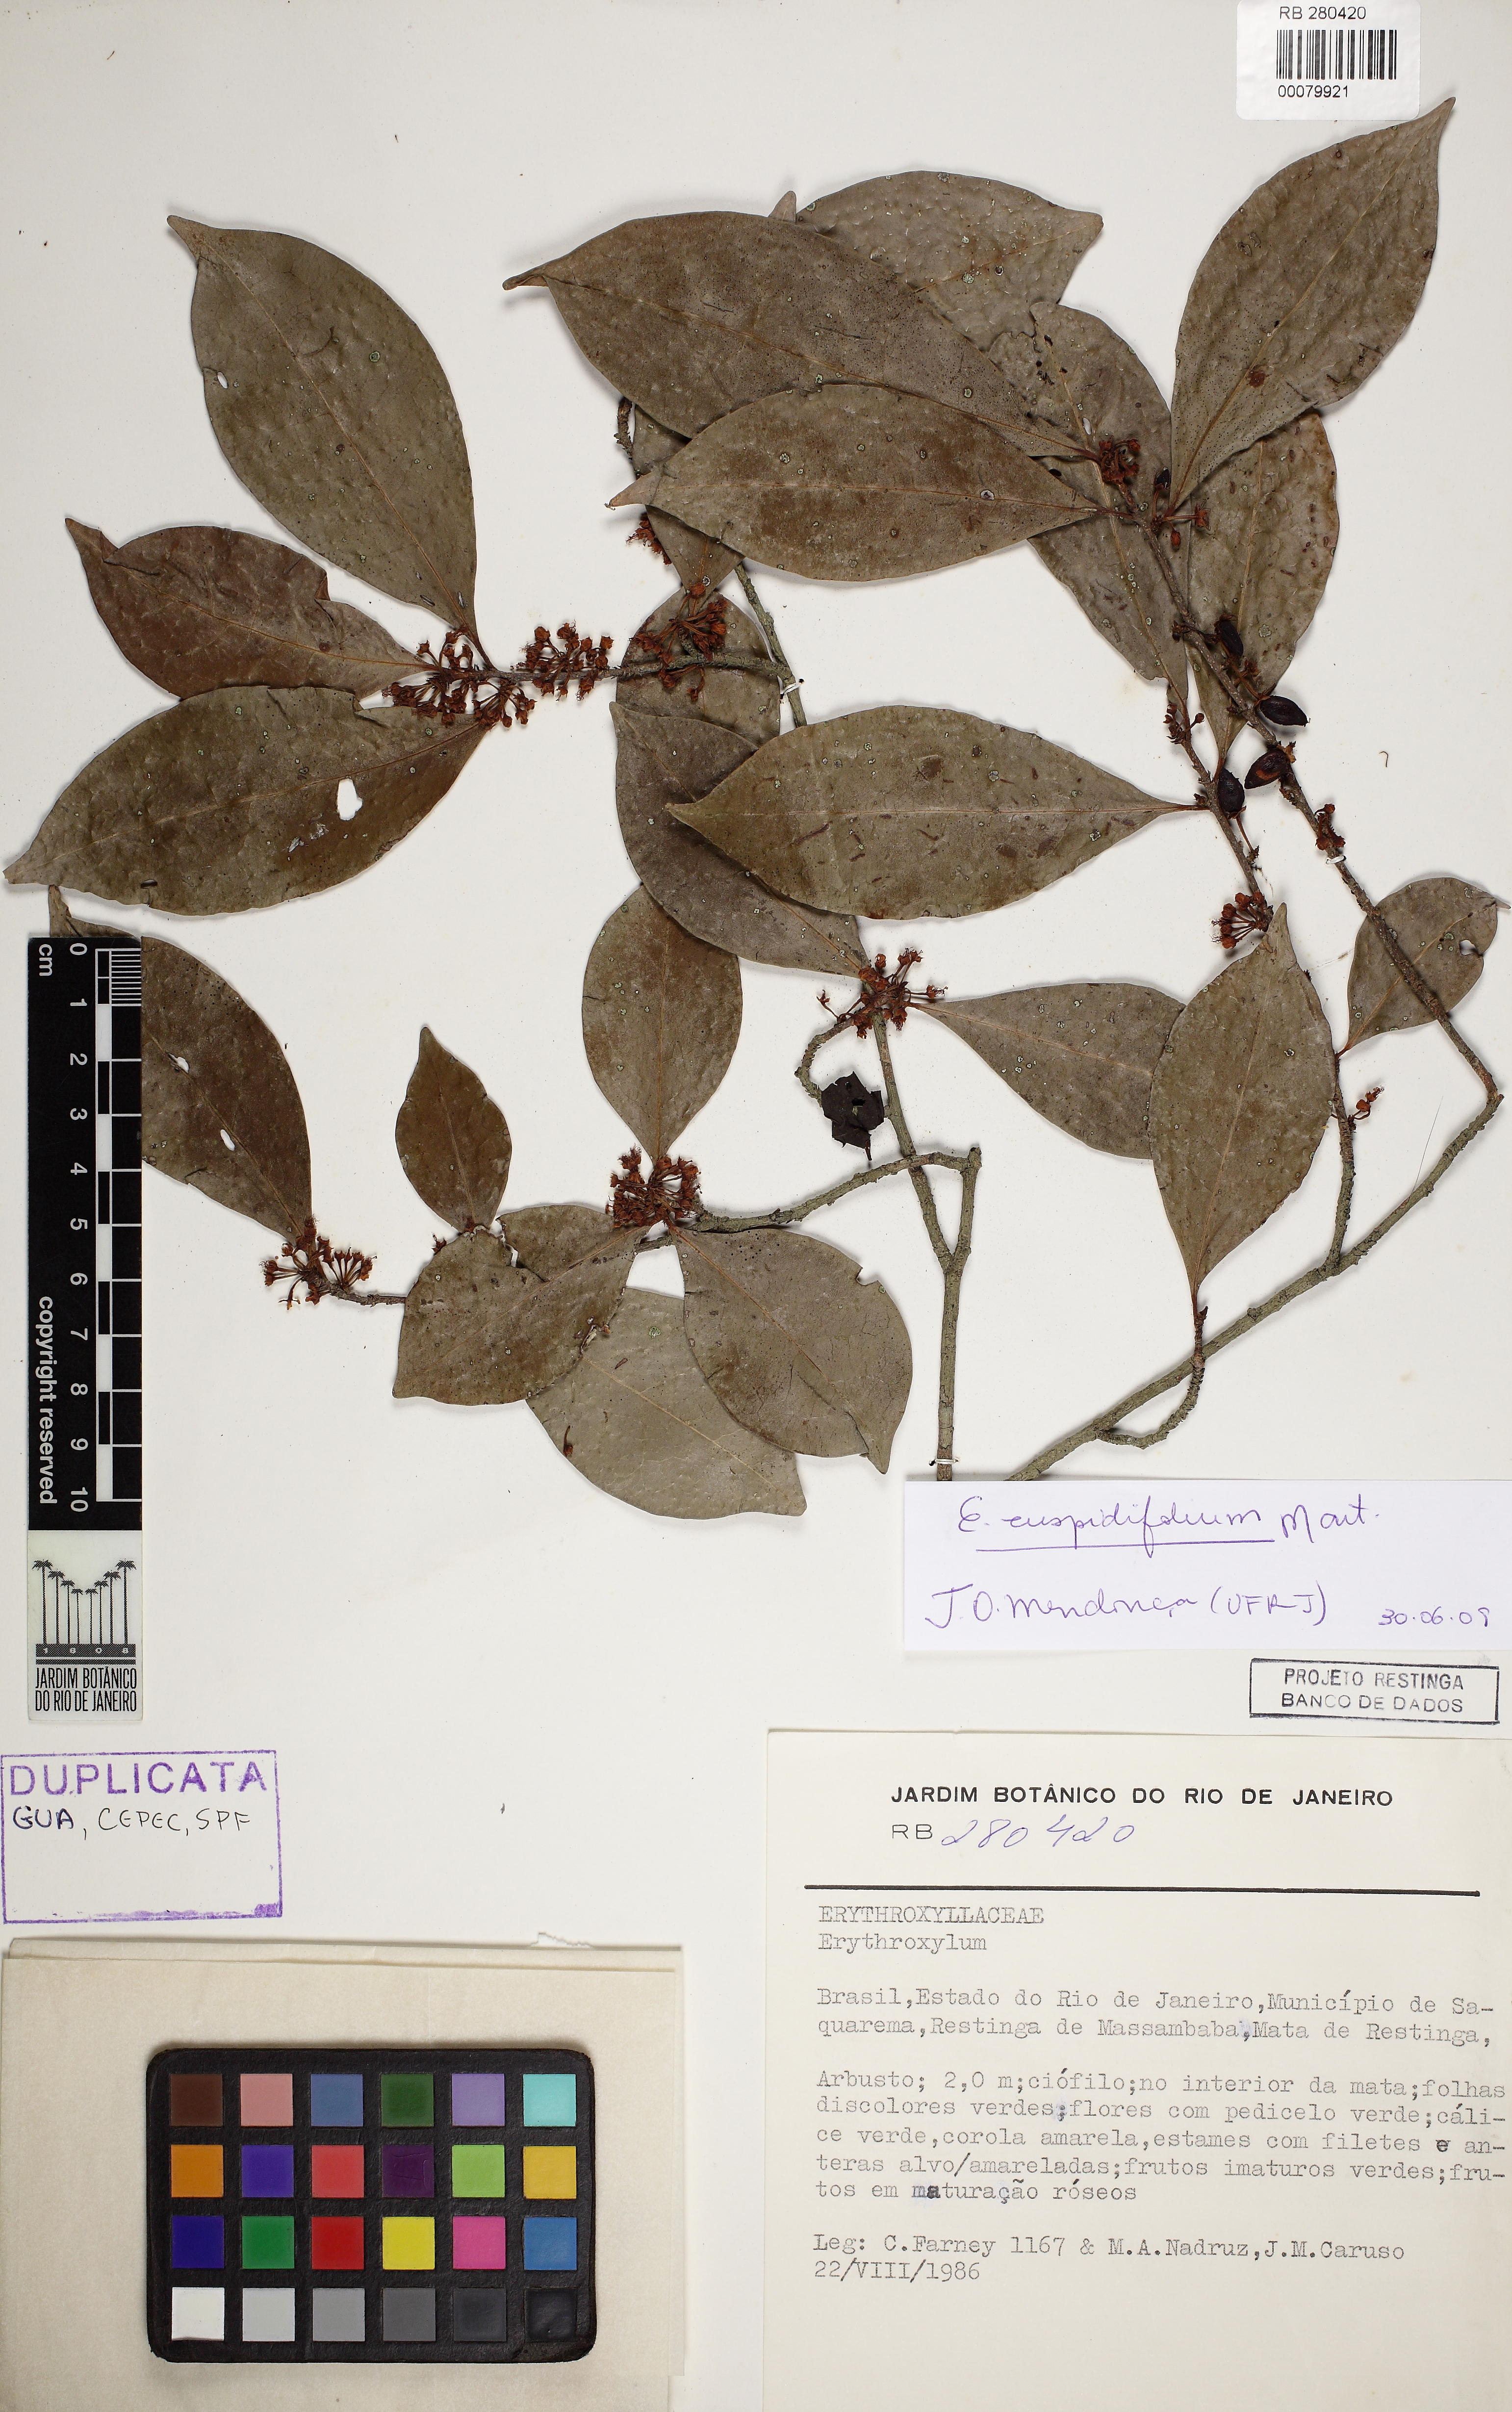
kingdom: Plantae
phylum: Tracheophyta
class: Magnoliopsida
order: Malpighiales
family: Erythroxylaceae
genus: Erythroxylum
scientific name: Erythroxylum cuspidifolium
